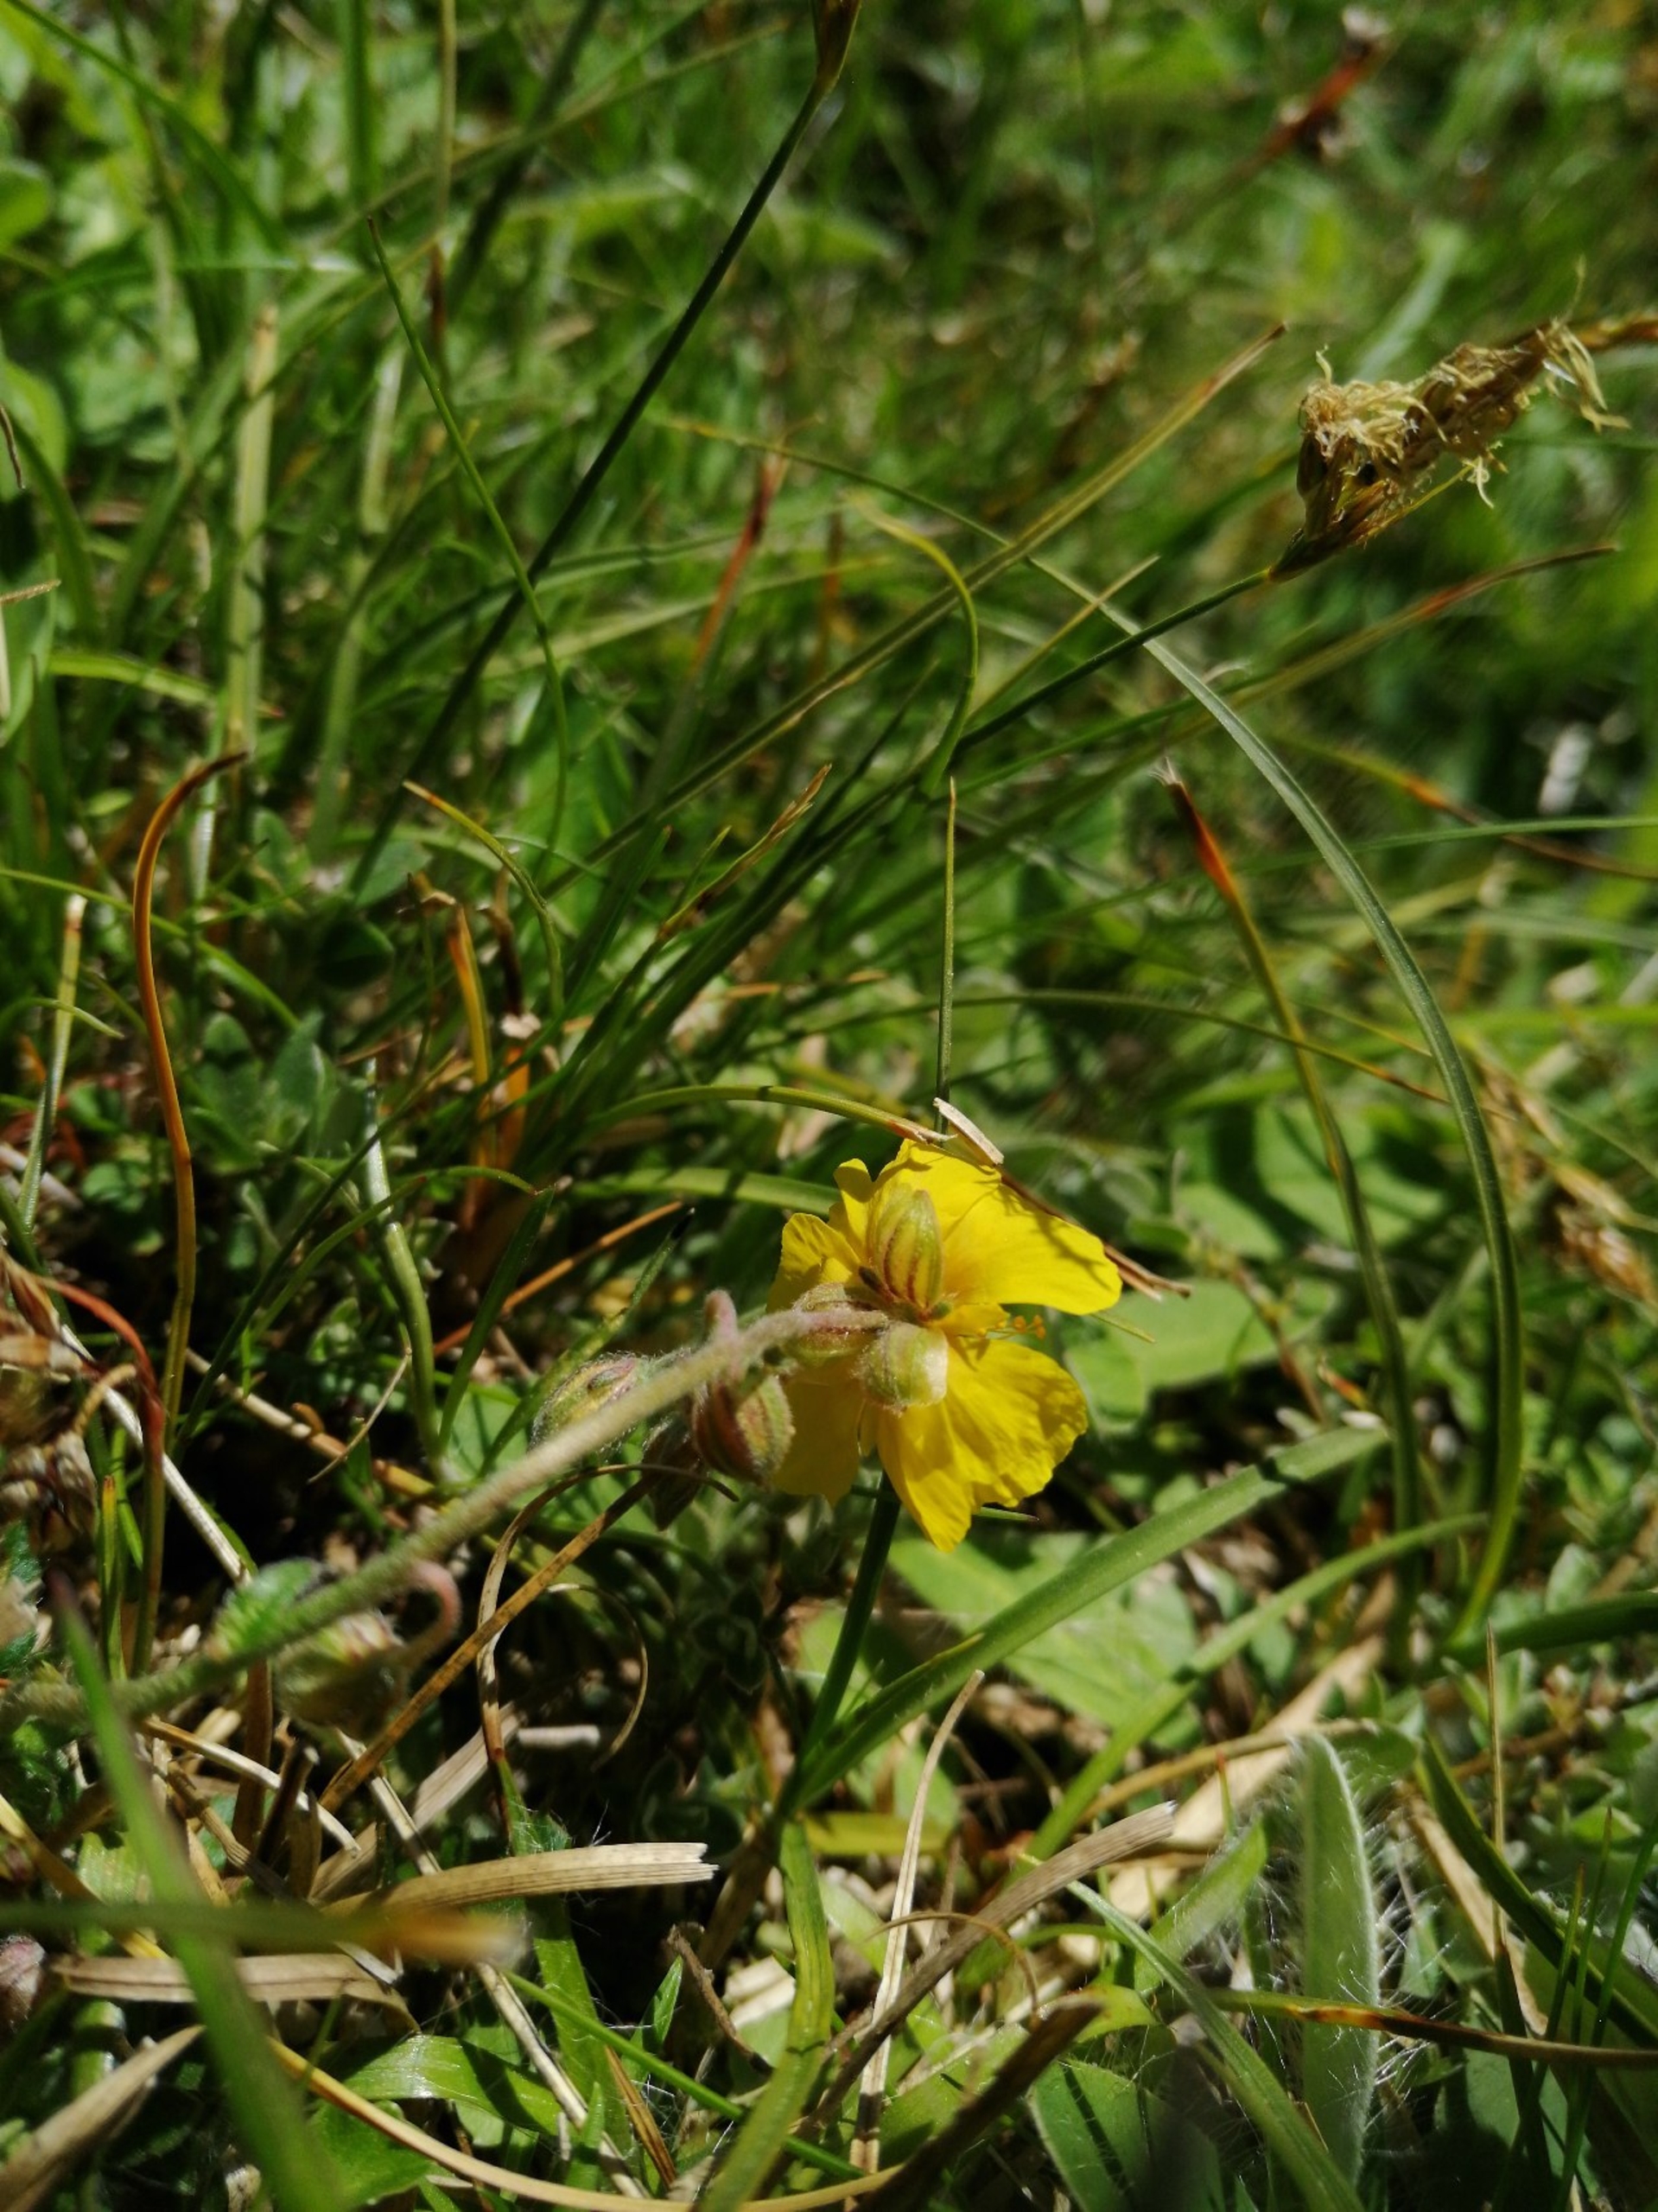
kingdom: Plantae
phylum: Tracheophyta
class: Magnoliopsida
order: Malvales
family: Cistaceae
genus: Helianthemum
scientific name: Helianthemum nummularium
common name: Soløje
